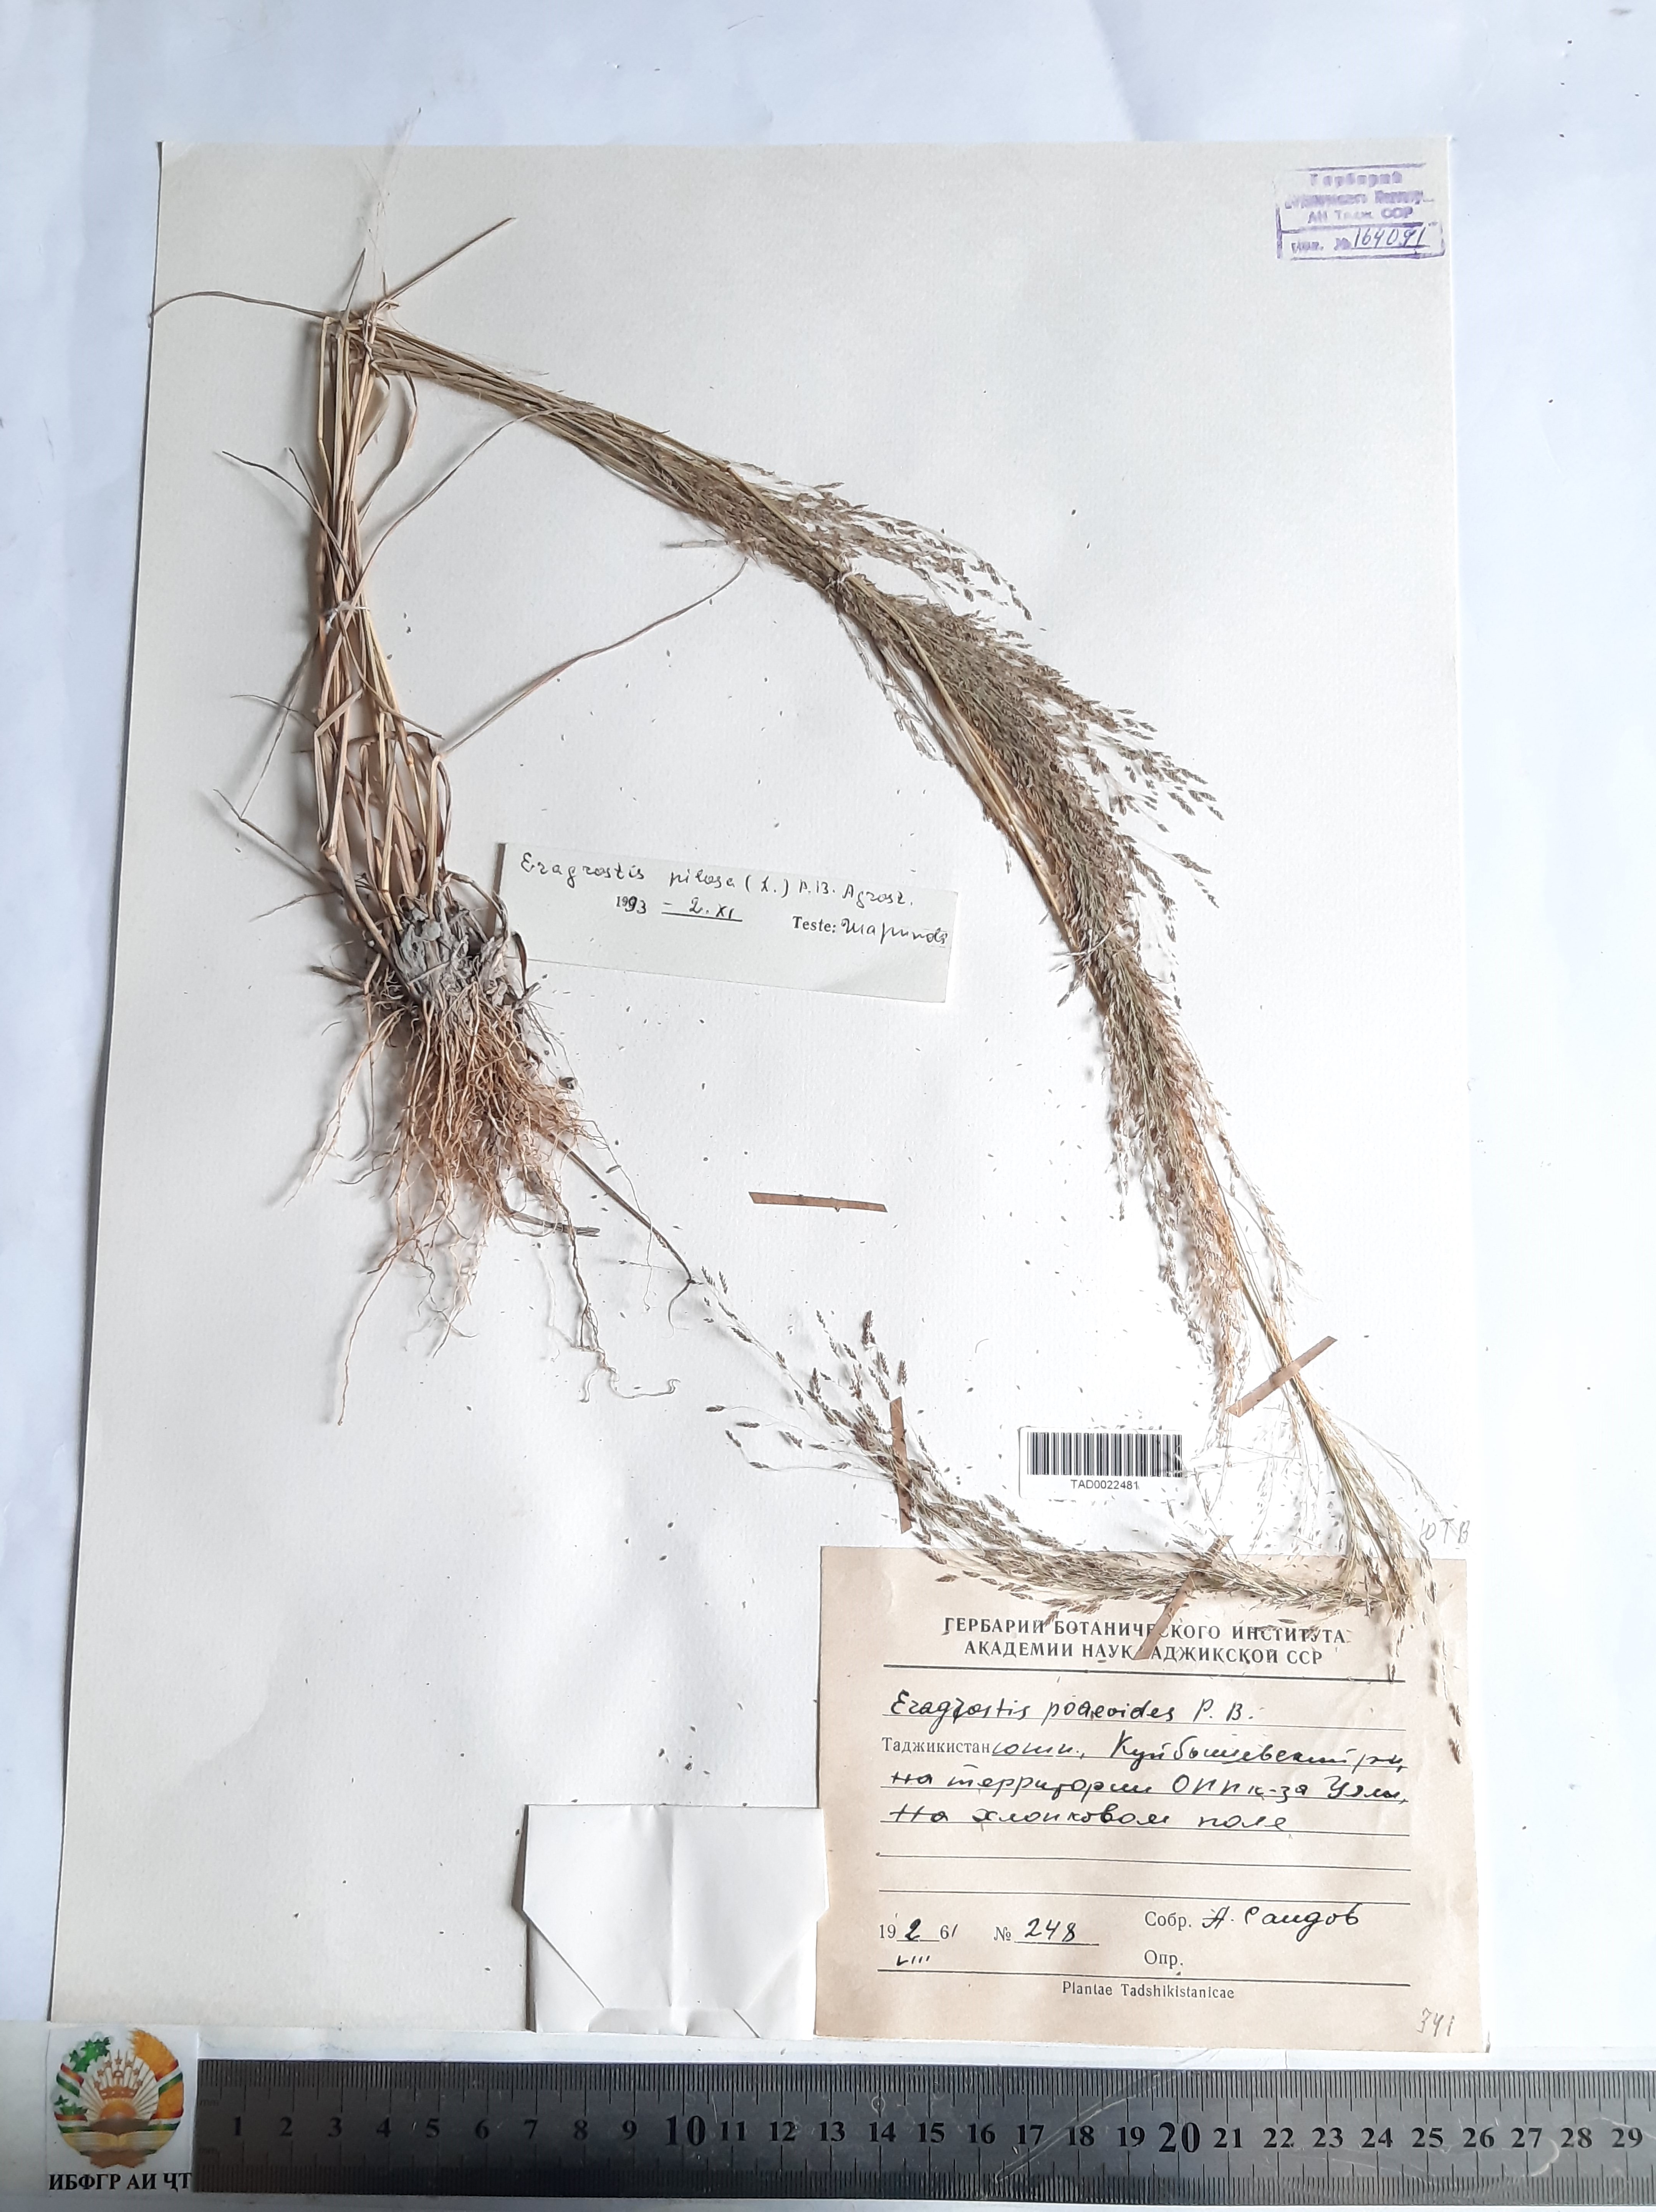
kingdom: Plantae
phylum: Tracheophyta
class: Liliopsida
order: Poales
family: Poaceae
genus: Eragrostis
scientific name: Eragrostis minor
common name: Small love-grass
